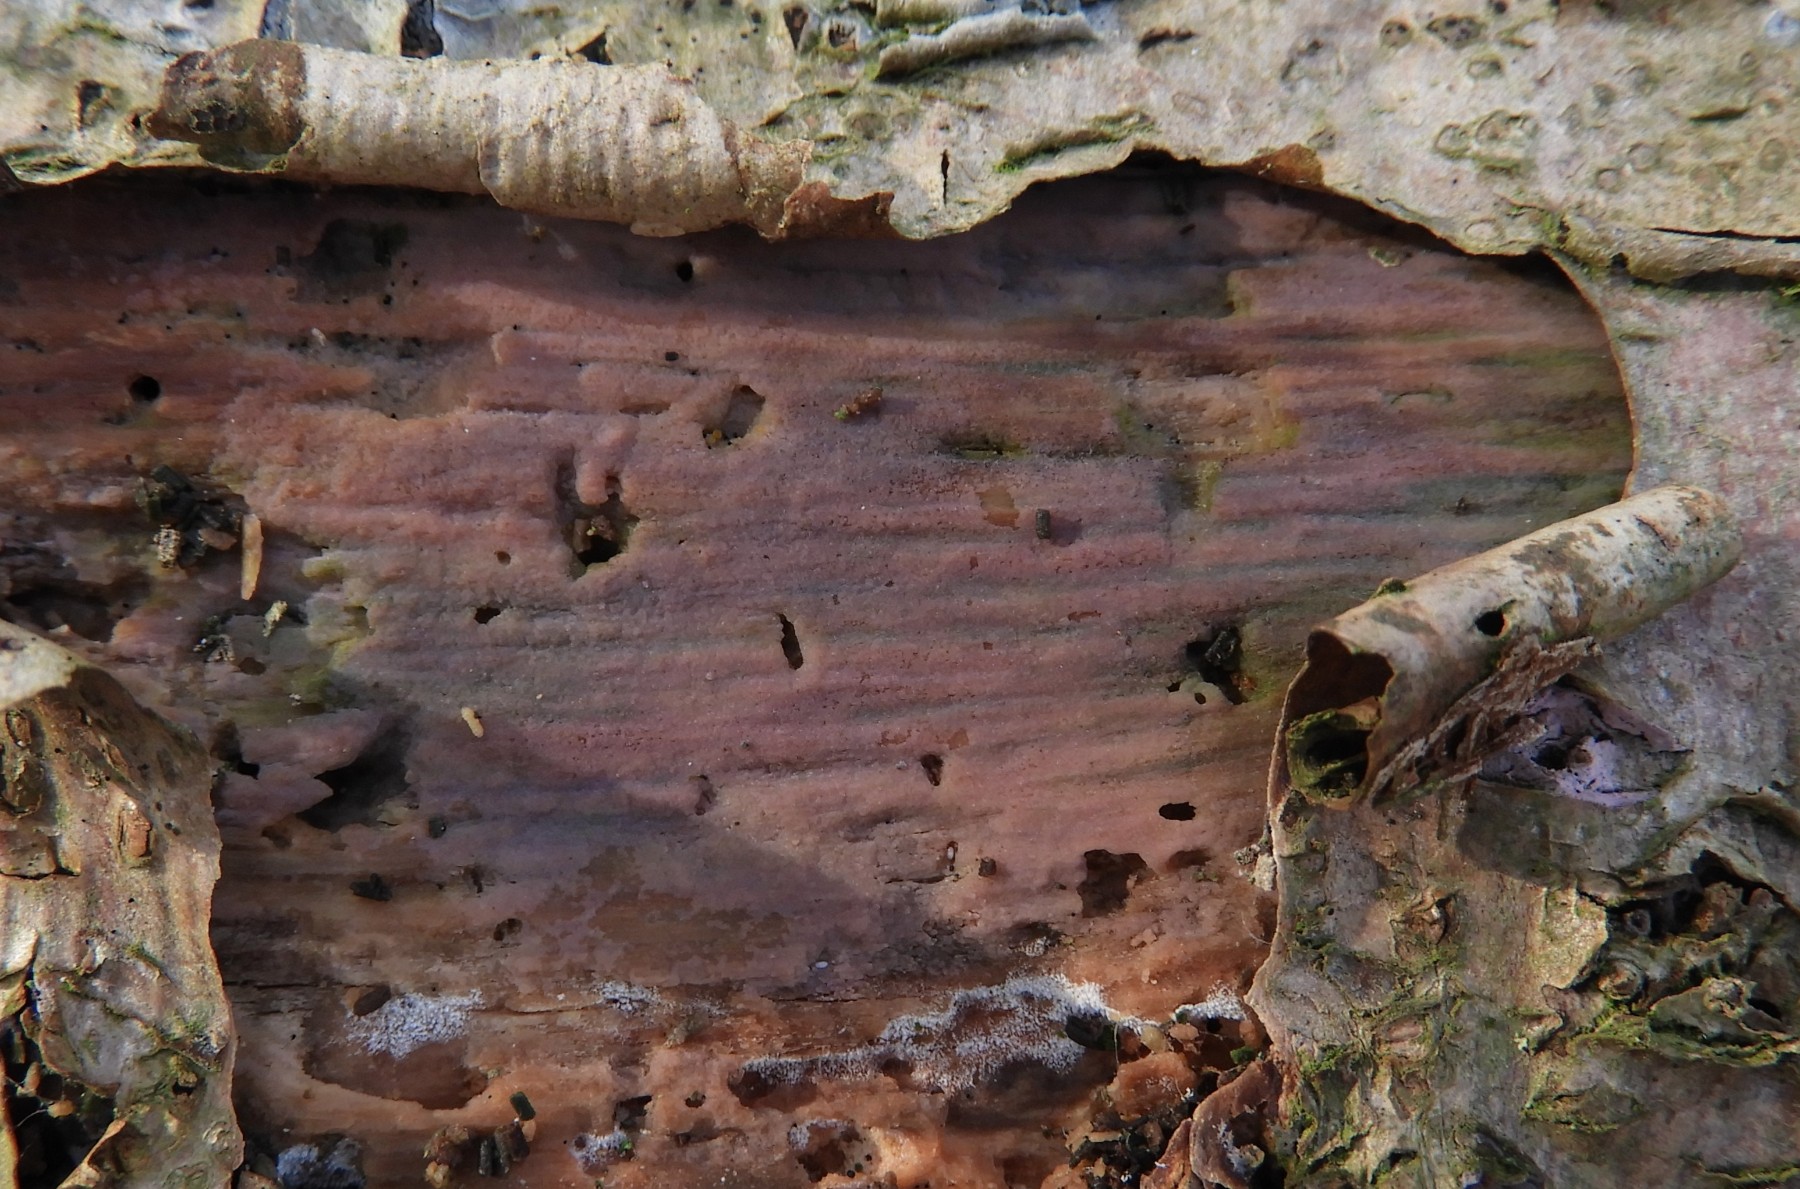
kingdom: Fungi
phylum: Basidiomycota
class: Agaricomycetes
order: Cantharellales
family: Tulasnellaceae
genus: Tulasnella
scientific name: Tulasnella violea
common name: violet ballonhinde
